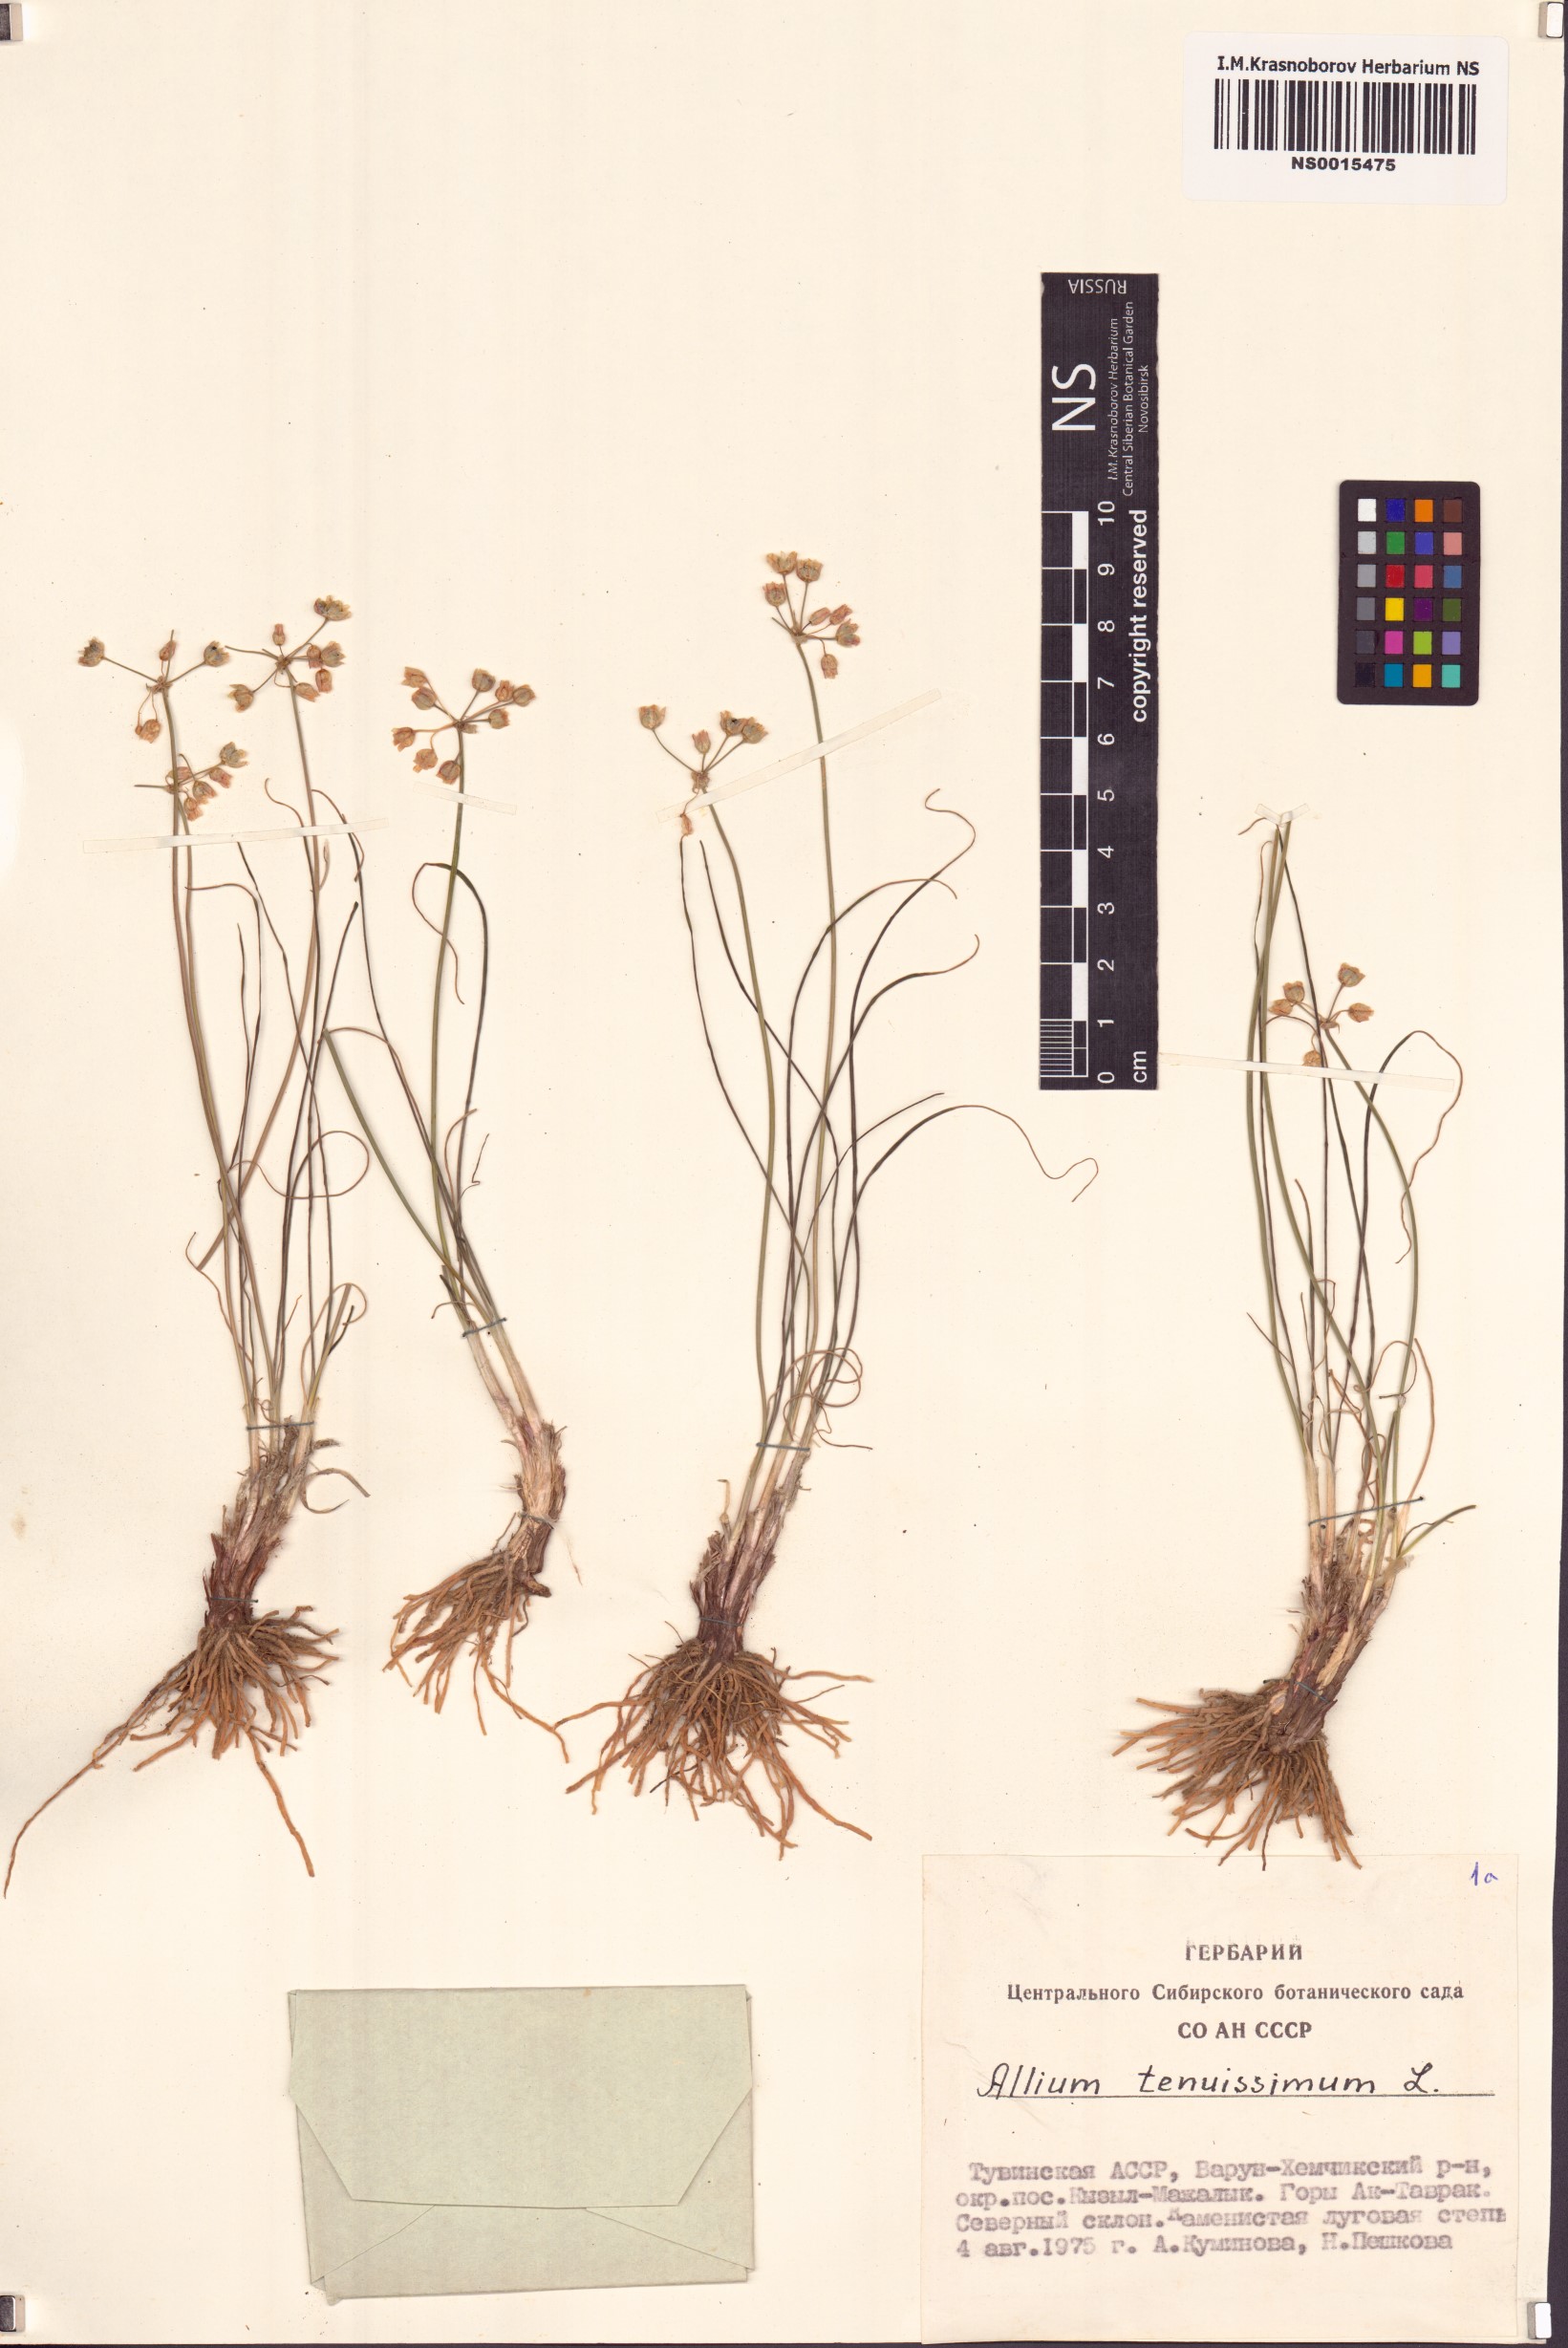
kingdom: Plantae
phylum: Tracheophyta
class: Liliopsida
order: Asparagales
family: Amaryllidaceae
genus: Allium
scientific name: Allium tenuissimum
